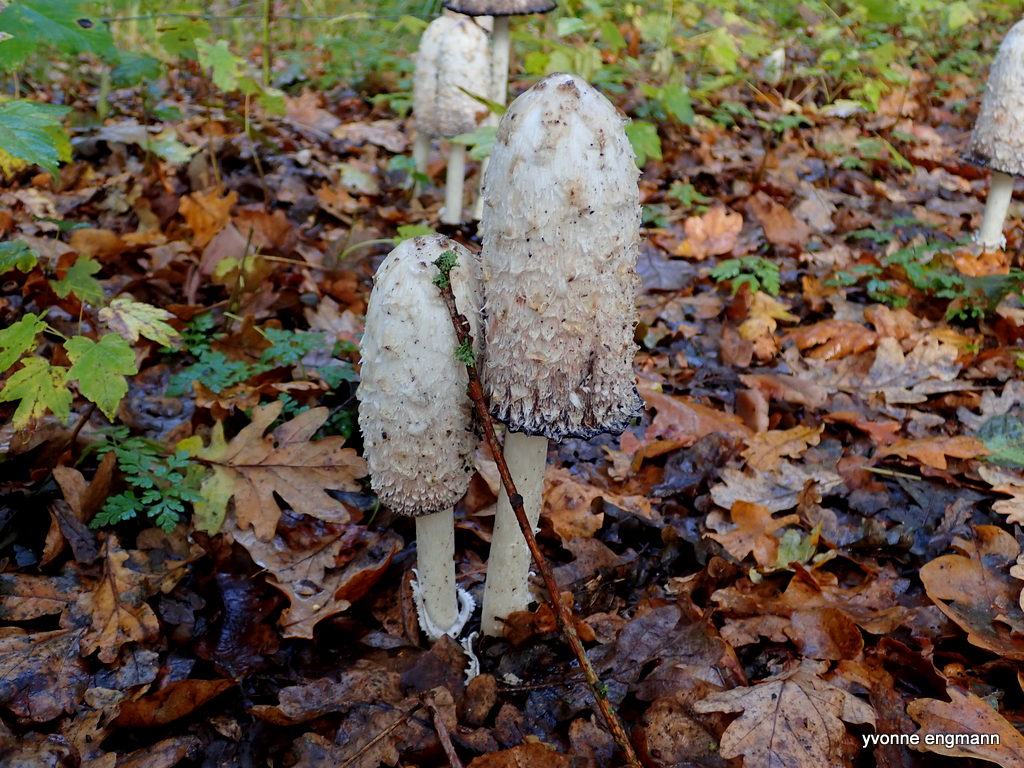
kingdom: Fungi
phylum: Basidiomycota
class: Agaricomycetes
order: Agaricales
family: Agaricaceae
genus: Coprinus
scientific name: Coprinus comatus
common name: stor parykhat
